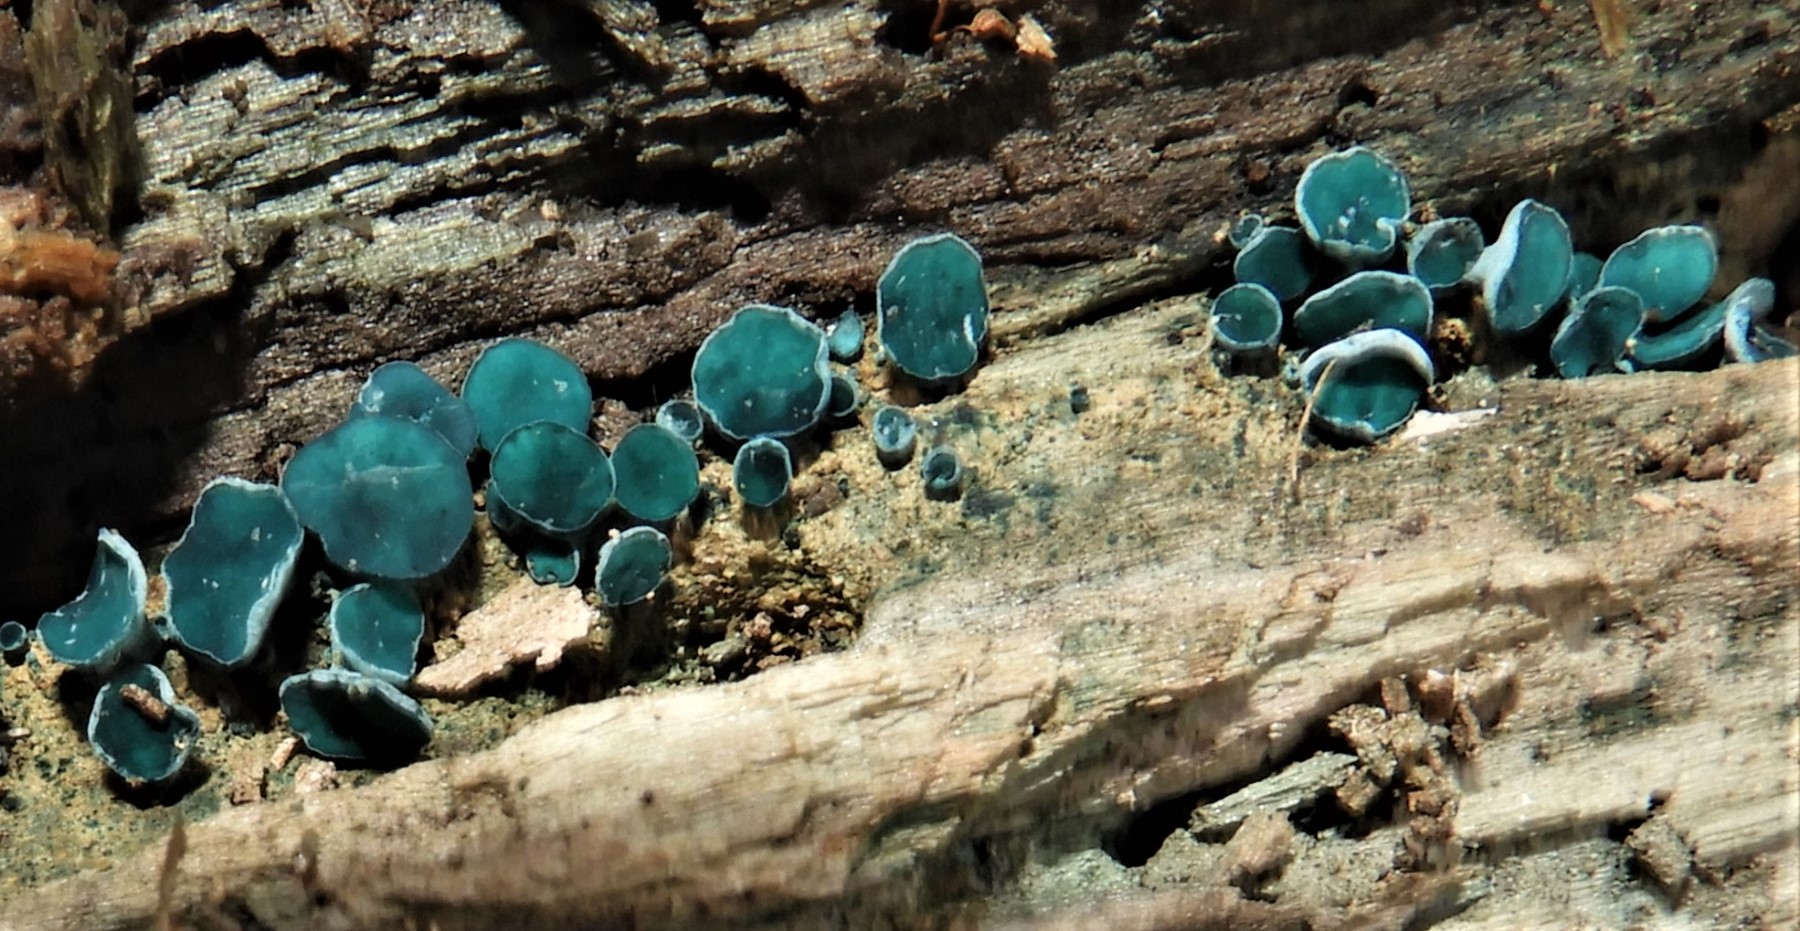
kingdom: Fungi
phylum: Ascomycota
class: Leotiomycetes
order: Helotiales
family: Chlorociboriaceae
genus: Chlorociboria
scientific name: Chlorociboria aeruginascens
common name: almindelig grønskive
